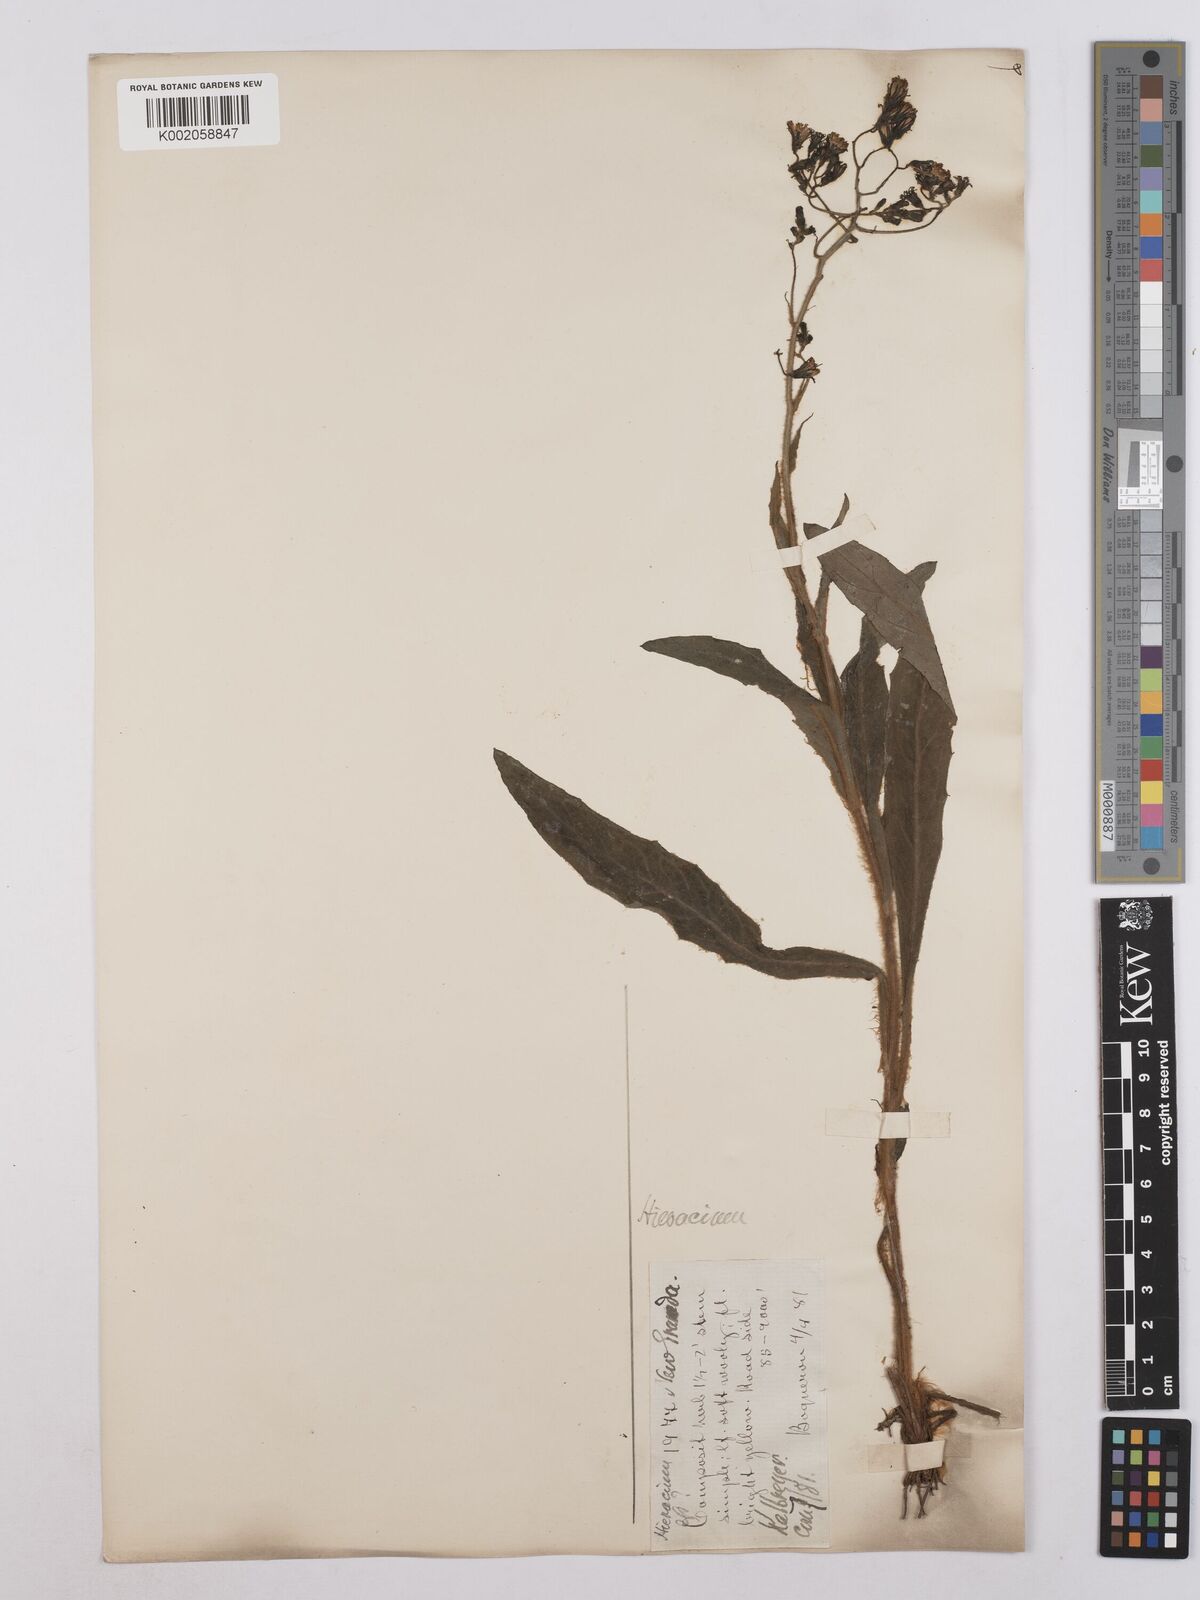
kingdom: Plantae
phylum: Tracheophyta
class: Magnoliopsida
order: Asterales
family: Asteraceae
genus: Hieracium
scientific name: Hieracium leucanthemum
